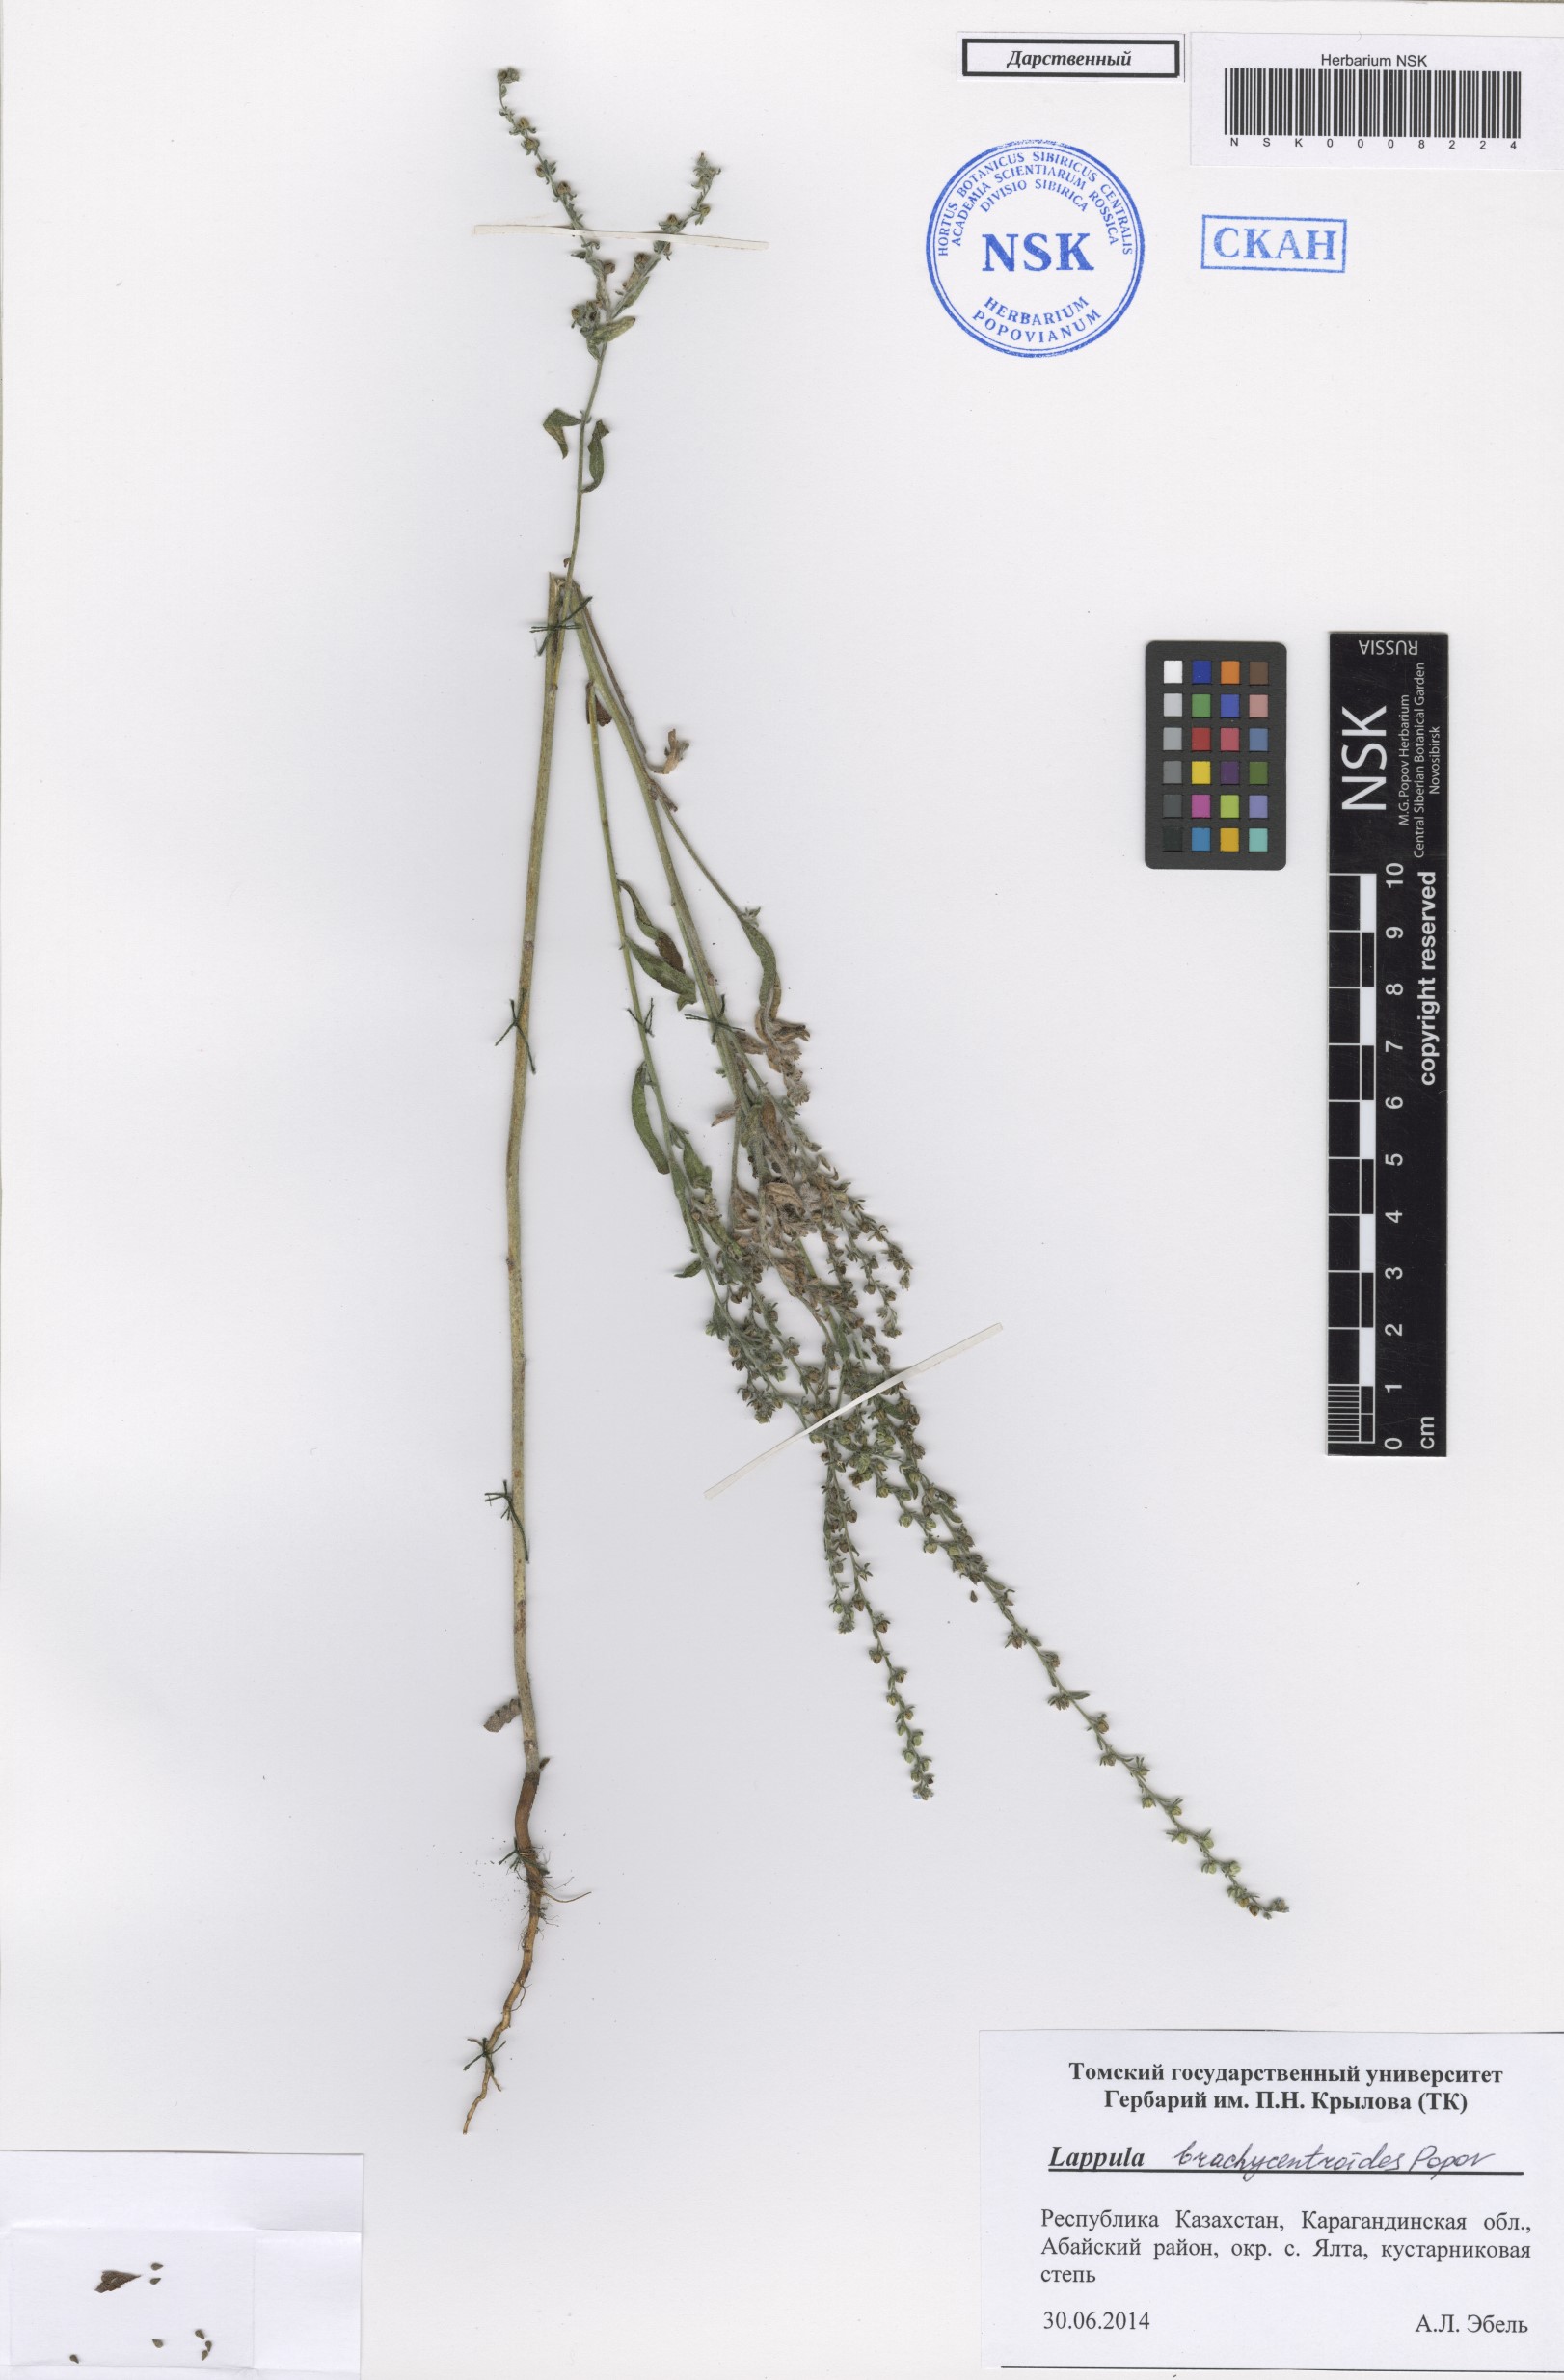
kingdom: Plantae
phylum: Tracheophyta
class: Magnoliopsida
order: Boraginales
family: Boraginaceae
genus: Lappula
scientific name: Lappula brachycentroides
